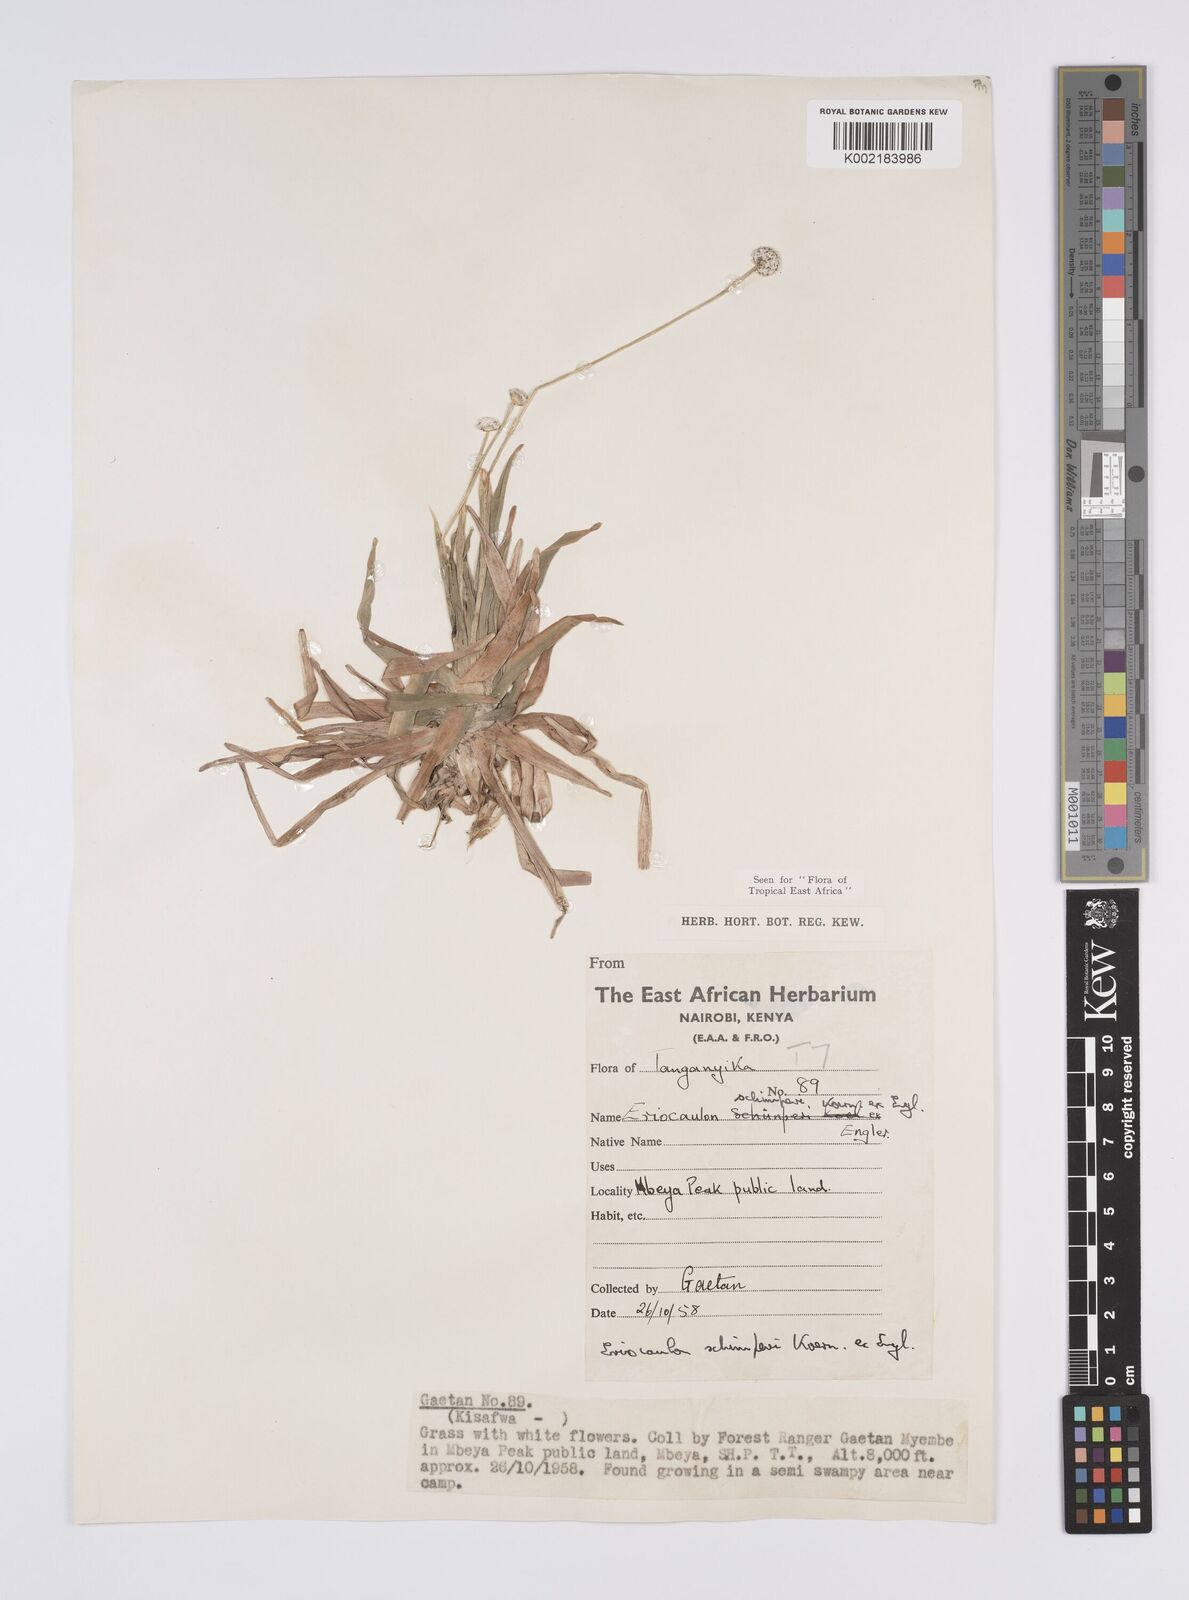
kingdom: Plantae
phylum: Tracheophyta
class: Liliopsida
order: Poales
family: Eriocaulaceae
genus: Eriocaulon
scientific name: Eriocaulon schimperi
